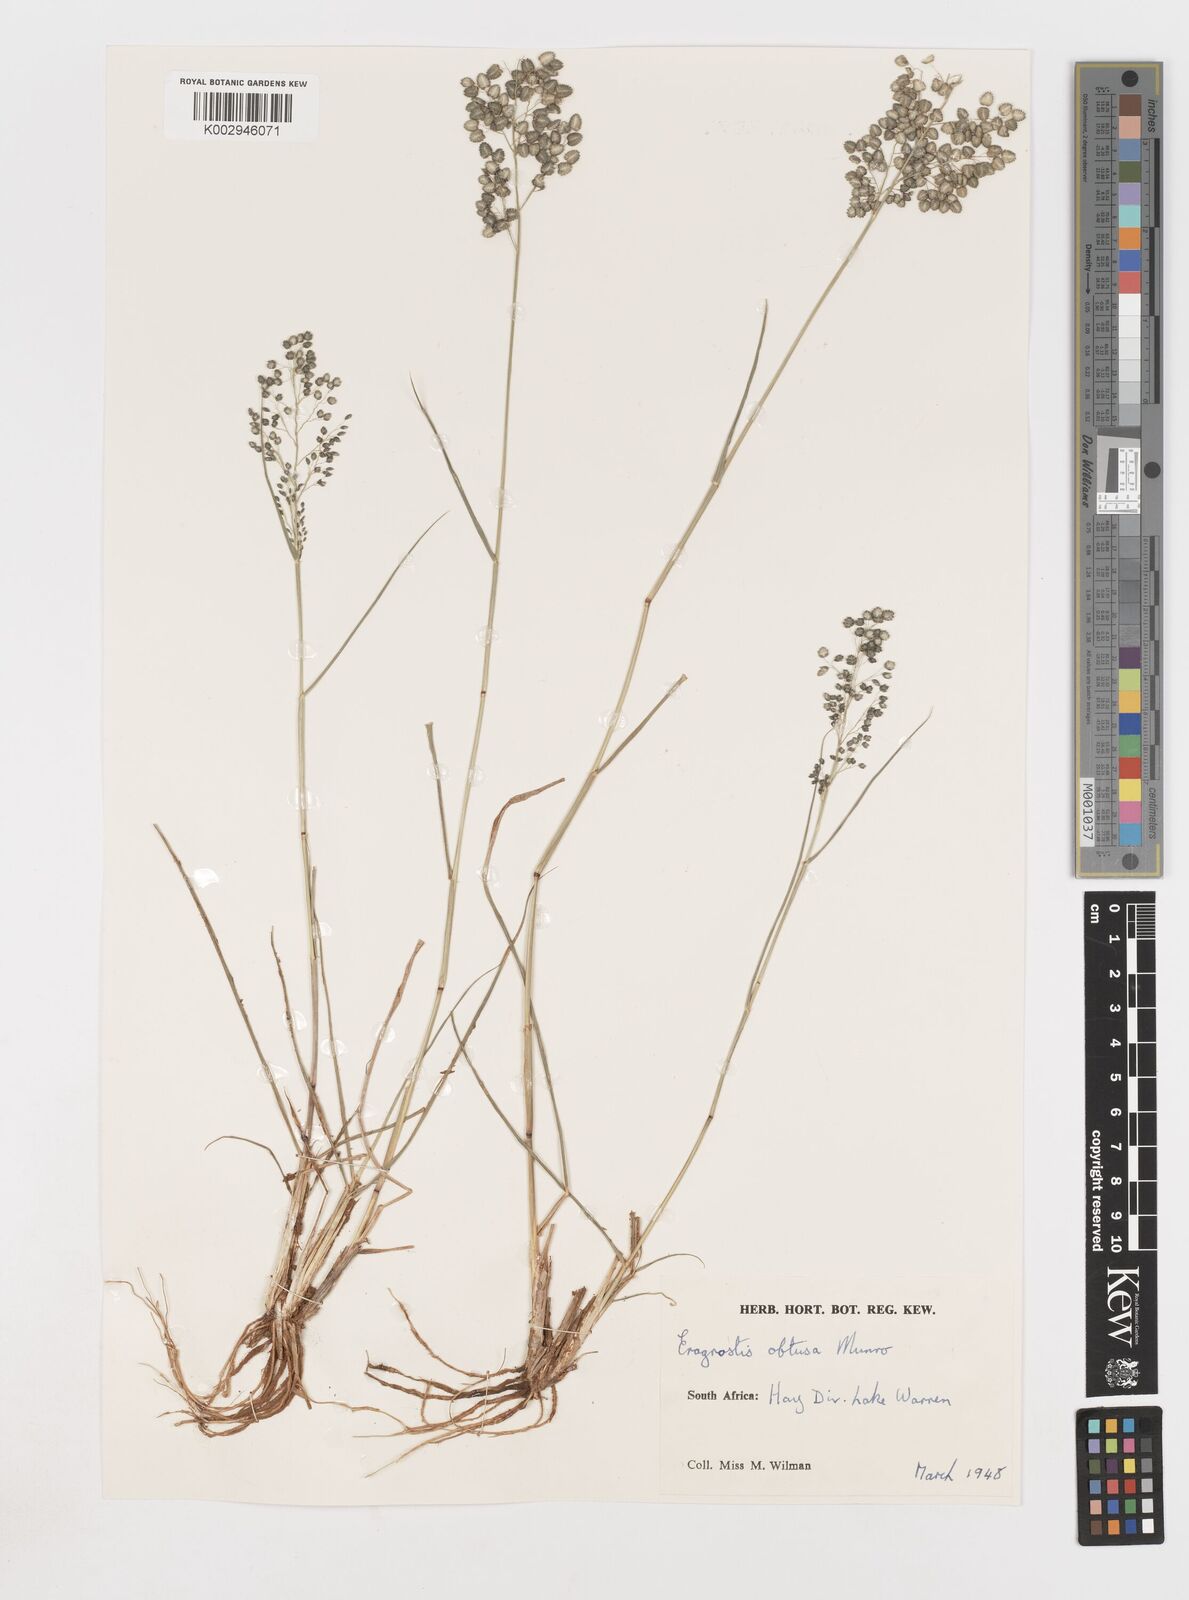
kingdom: Plantae
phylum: Tracheophyta
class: Liliopsida
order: Poales
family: Poaceae
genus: Eragrostis
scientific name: Eragrostis obtusa
